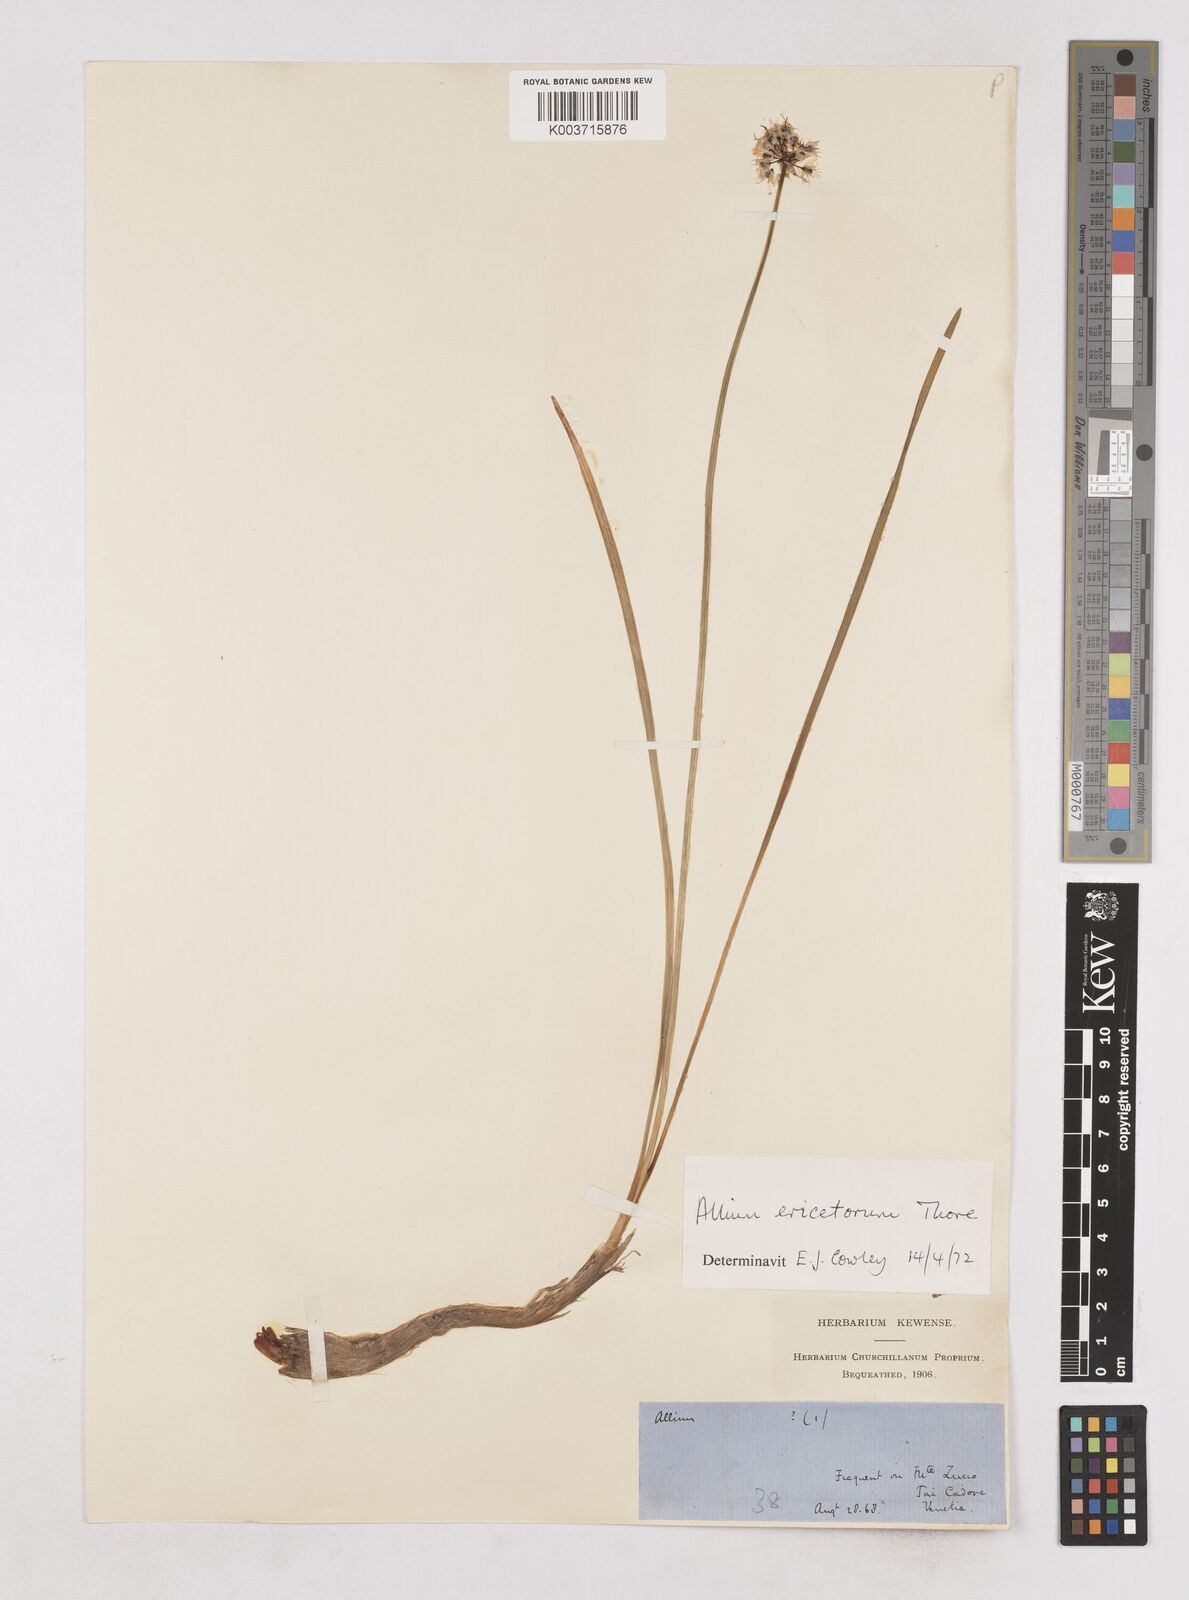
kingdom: Plantae
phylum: Tracheophyta
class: Liliopsida
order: Asparagales
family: Amaryllidaceae
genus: Allium
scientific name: Allium ericetorum
